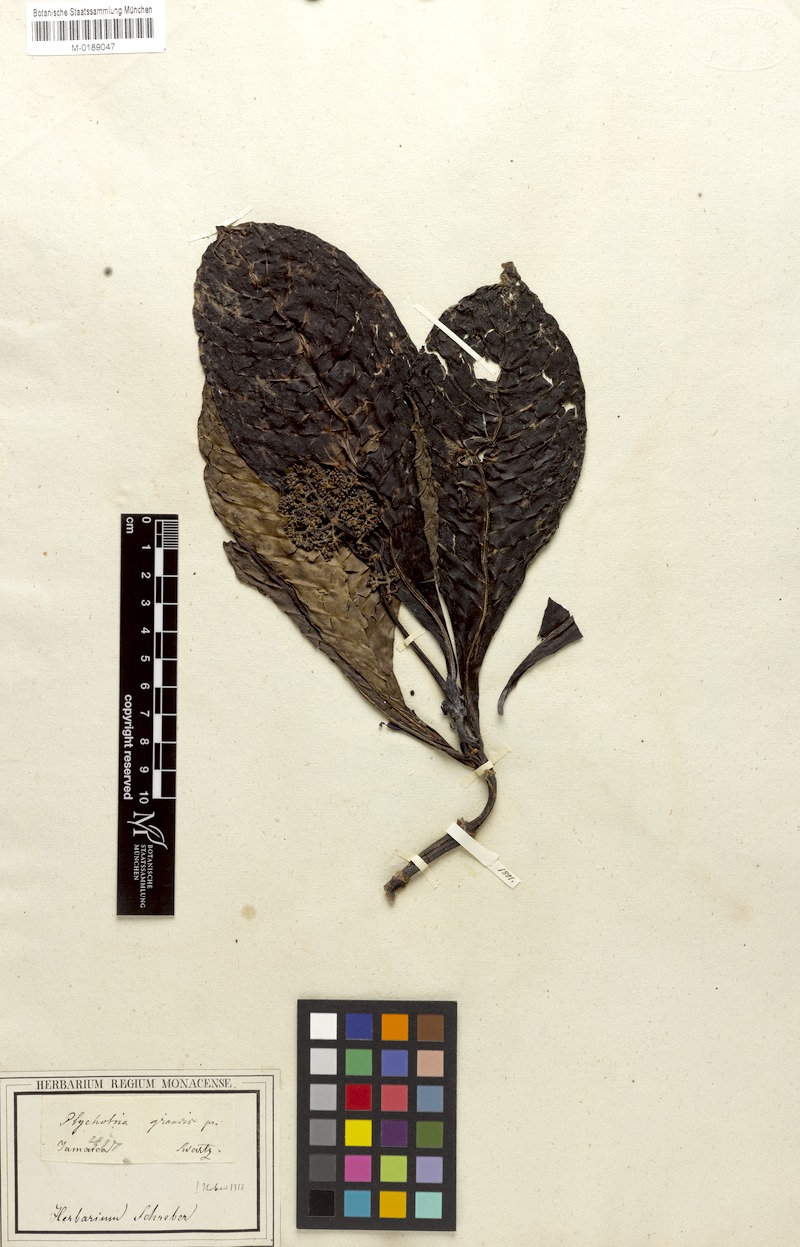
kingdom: Plantae
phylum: Tracheophyta
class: Magnoliopsida
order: Gentianales
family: Rubiaceae
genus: Psychotria
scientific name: Psychotria grandis
